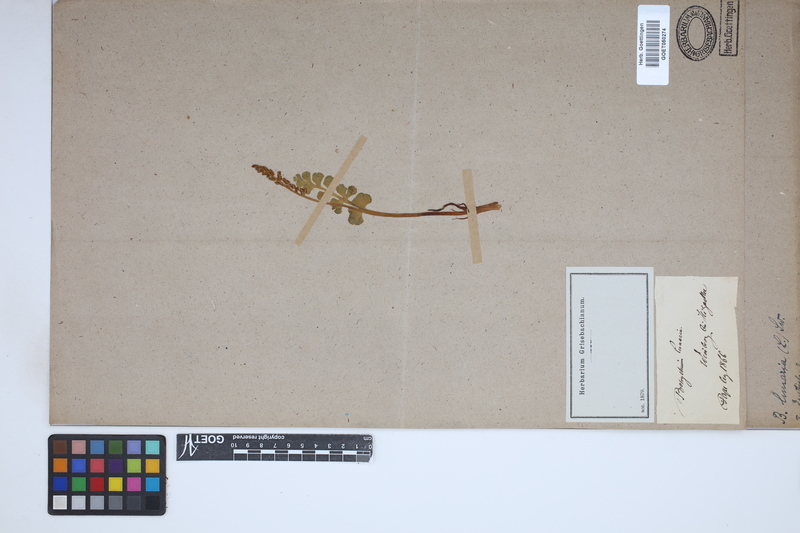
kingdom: Plantae
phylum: Tracheophyta
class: Polypodiopsida
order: Ophioglossales
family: Ophioglossaceae
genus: Botrychium
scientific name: Botrychium lunaria
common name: Moonwort
